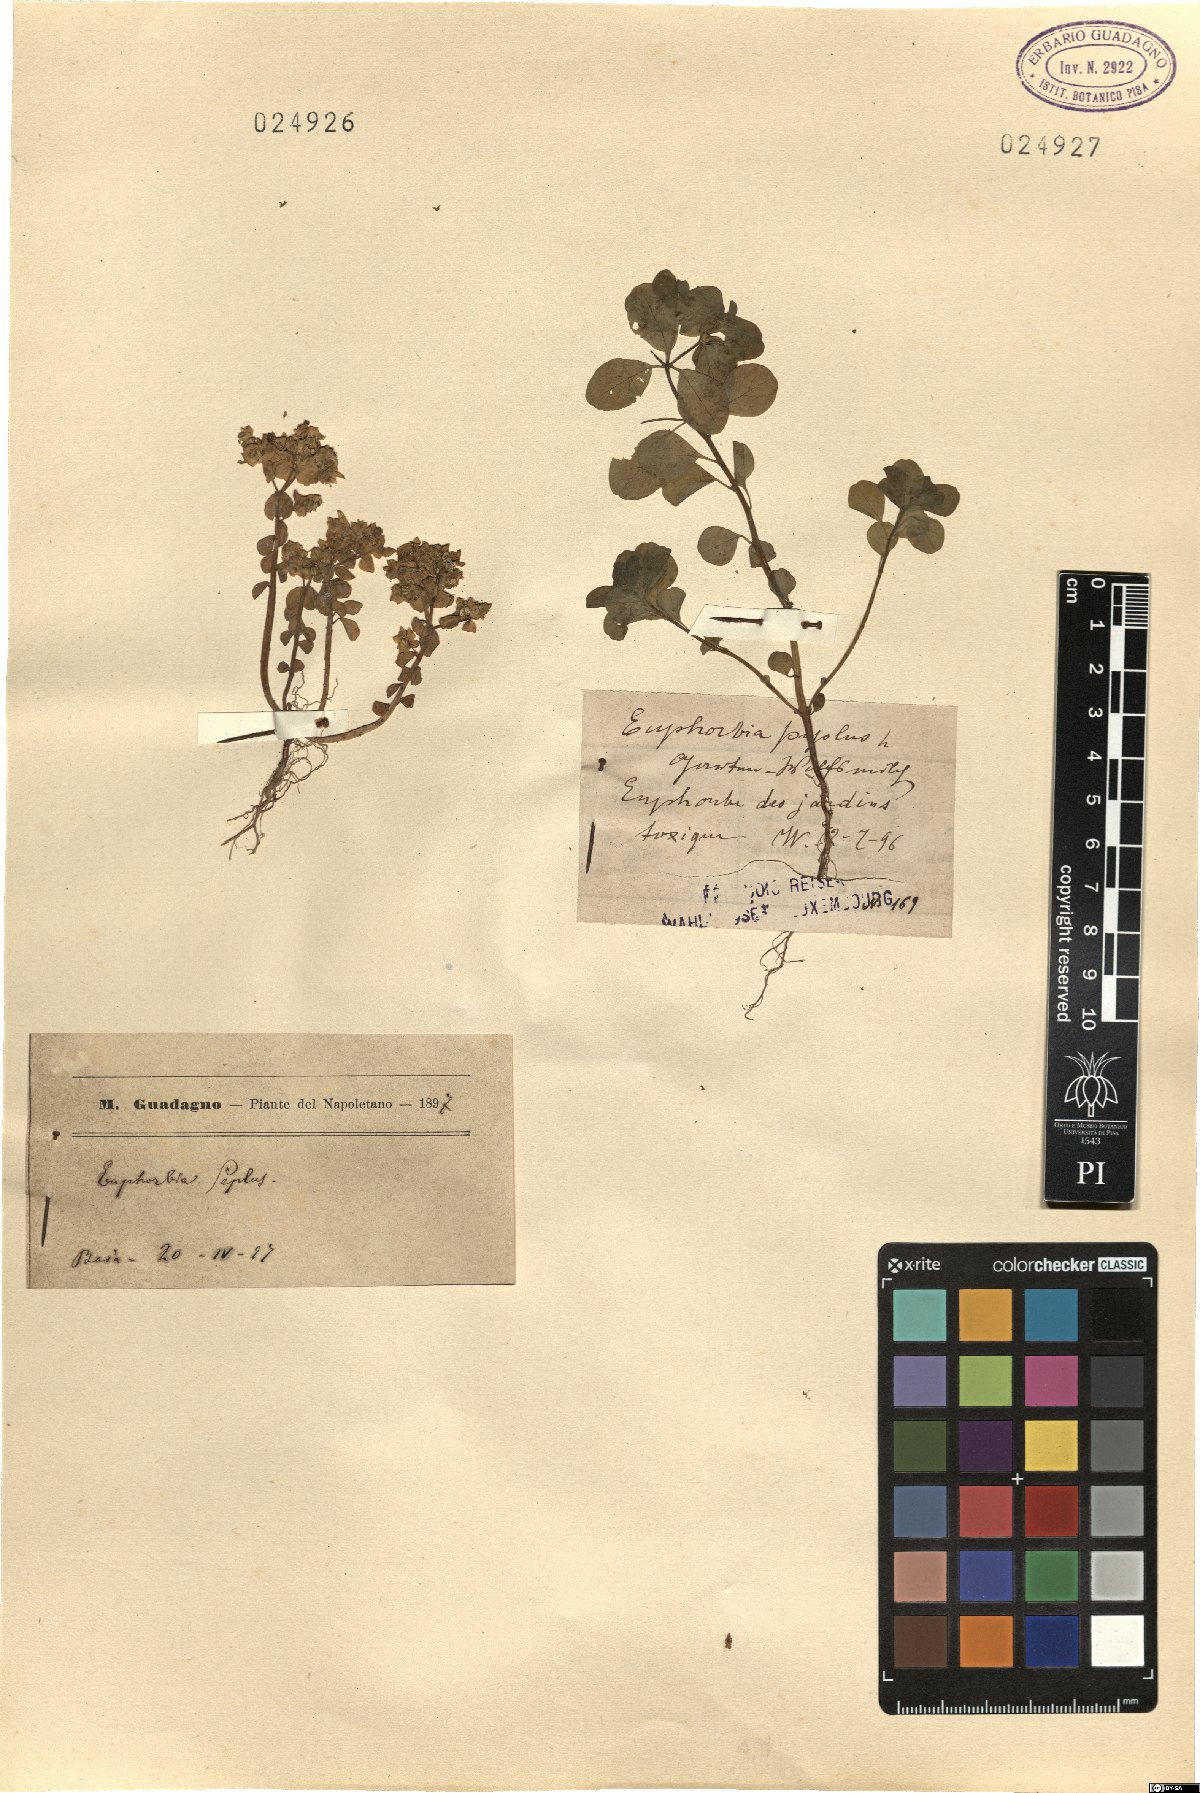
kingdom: Plantae
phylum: Tracheophyta
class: Magnoliopsida
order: Malpighiales
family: Euphorbiaceae
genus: Euphorbia
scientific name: Euphorbia peplus
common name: Petty spurge
